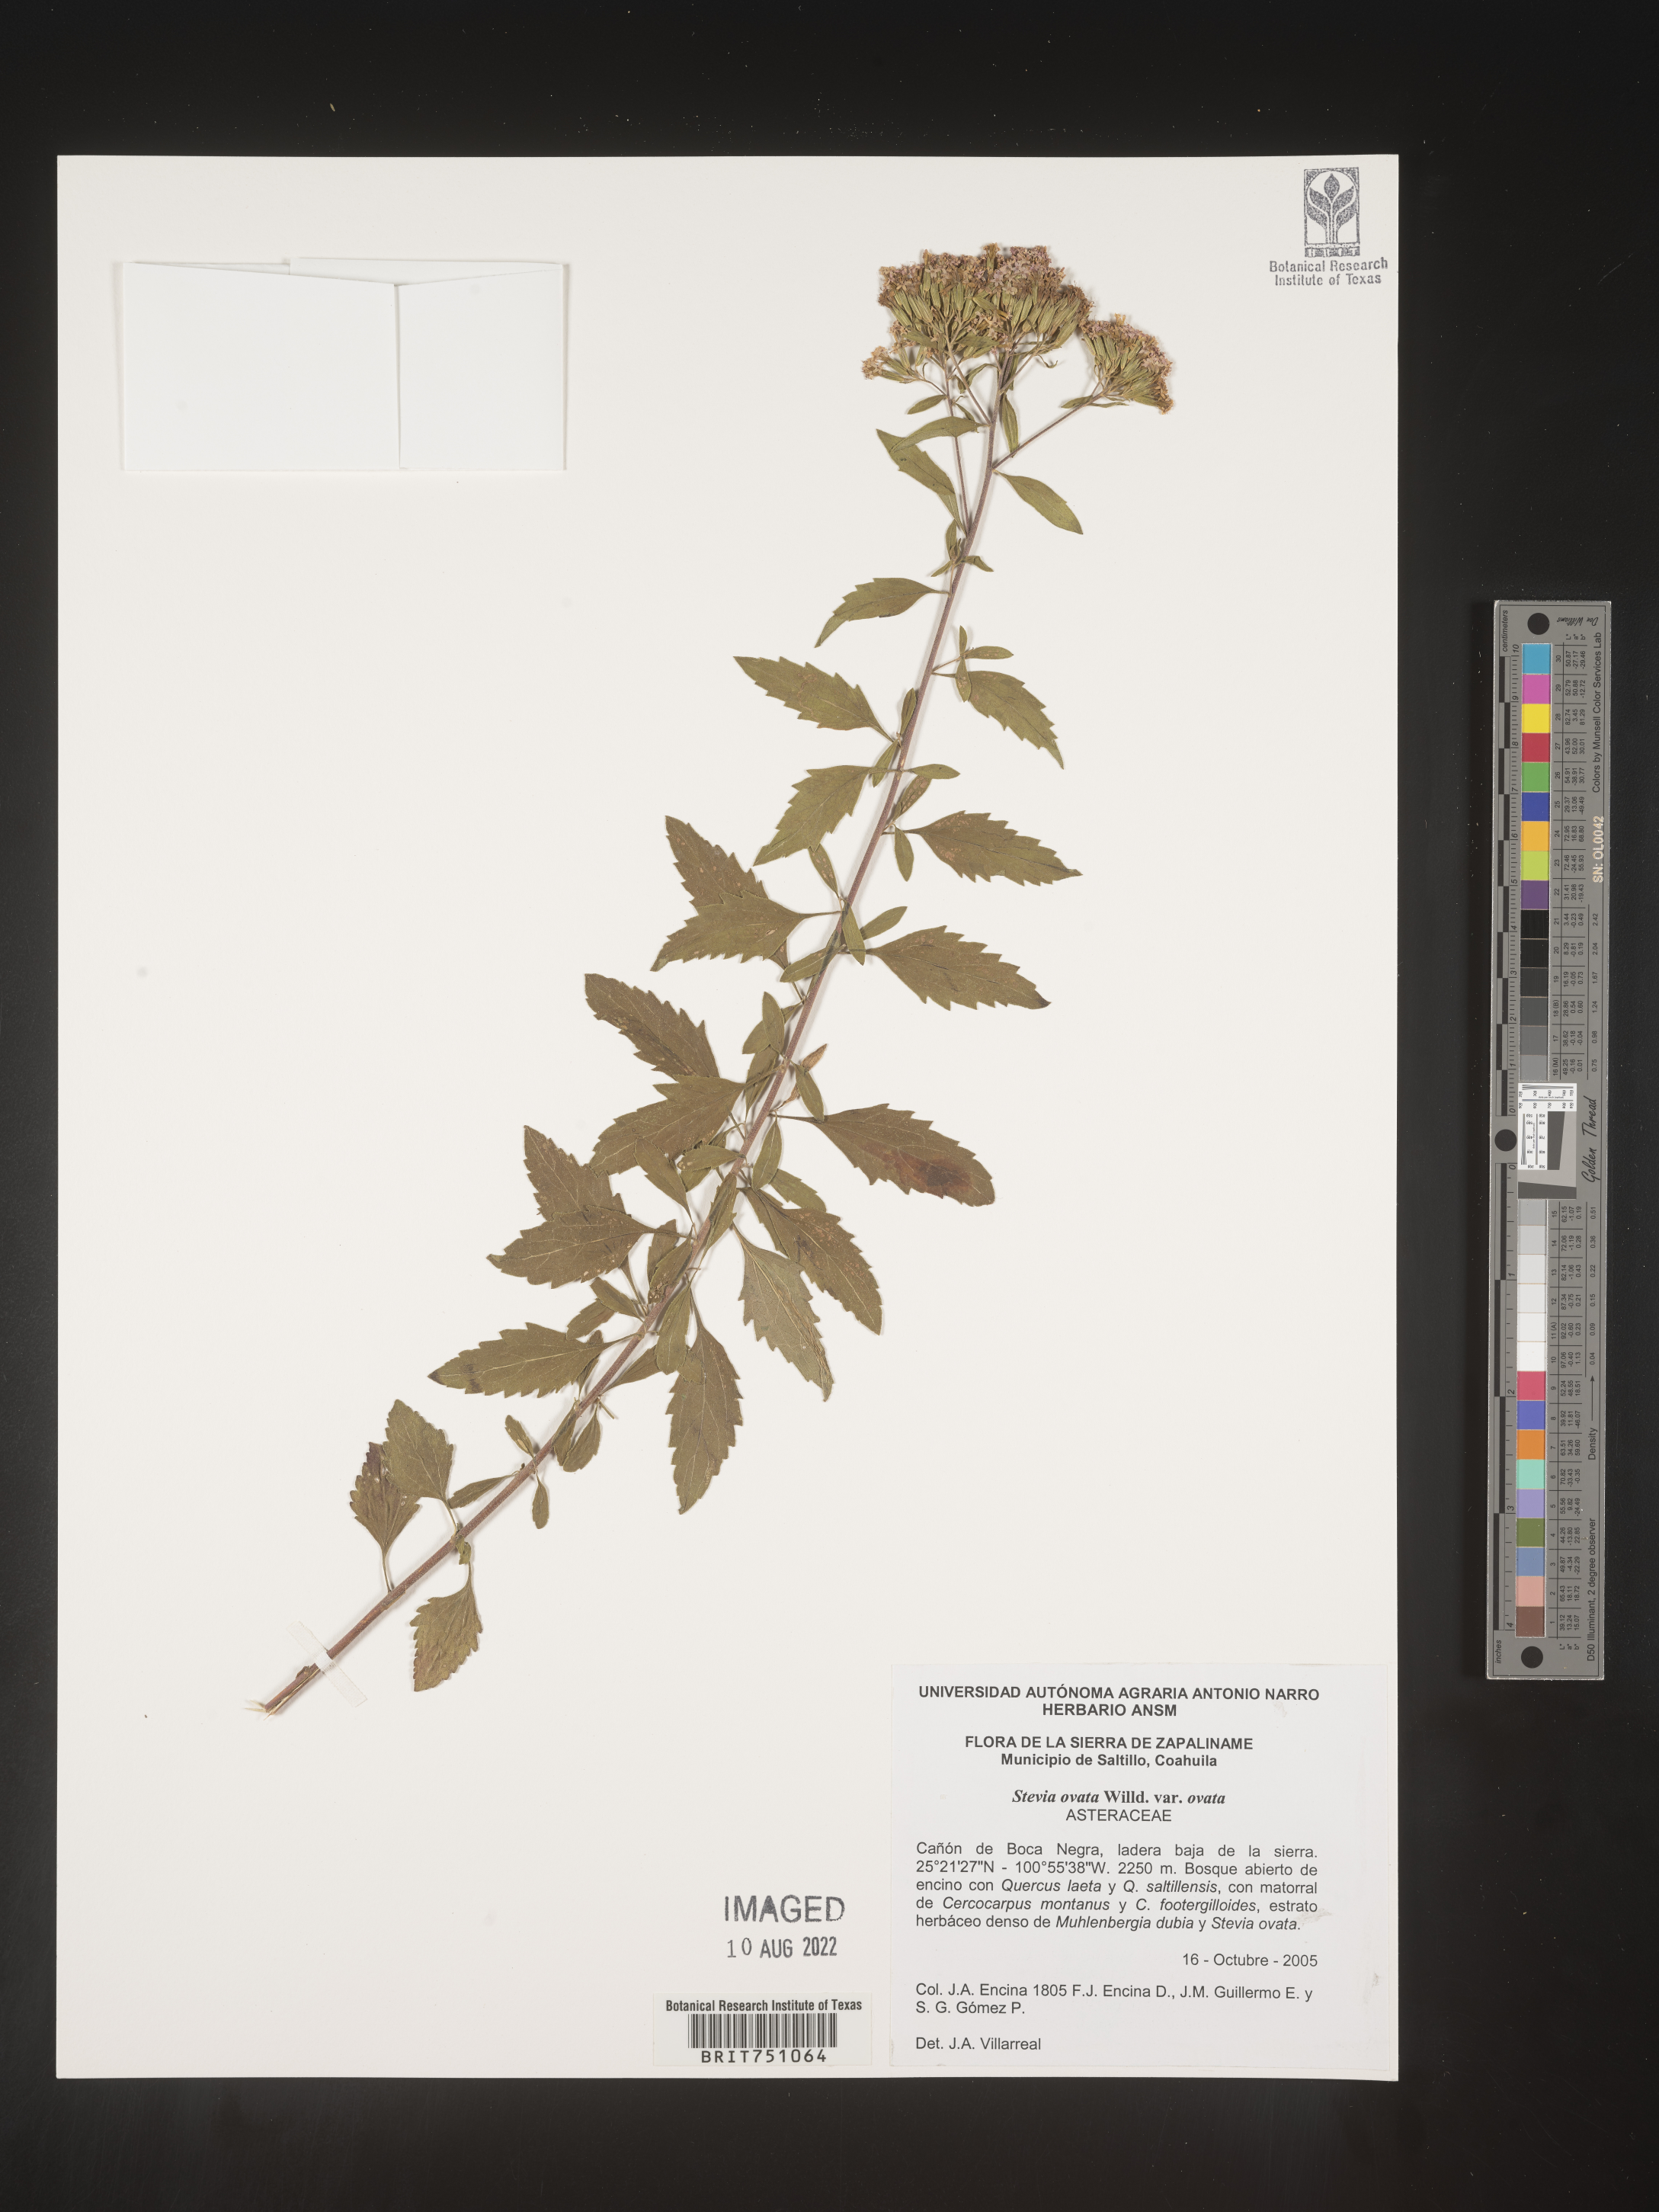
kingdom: Plantae
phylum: Tracheophyta
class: Magnoliopsida
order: Asterales
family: Asteraceae
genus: Stevia
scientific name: Stevia ovata
